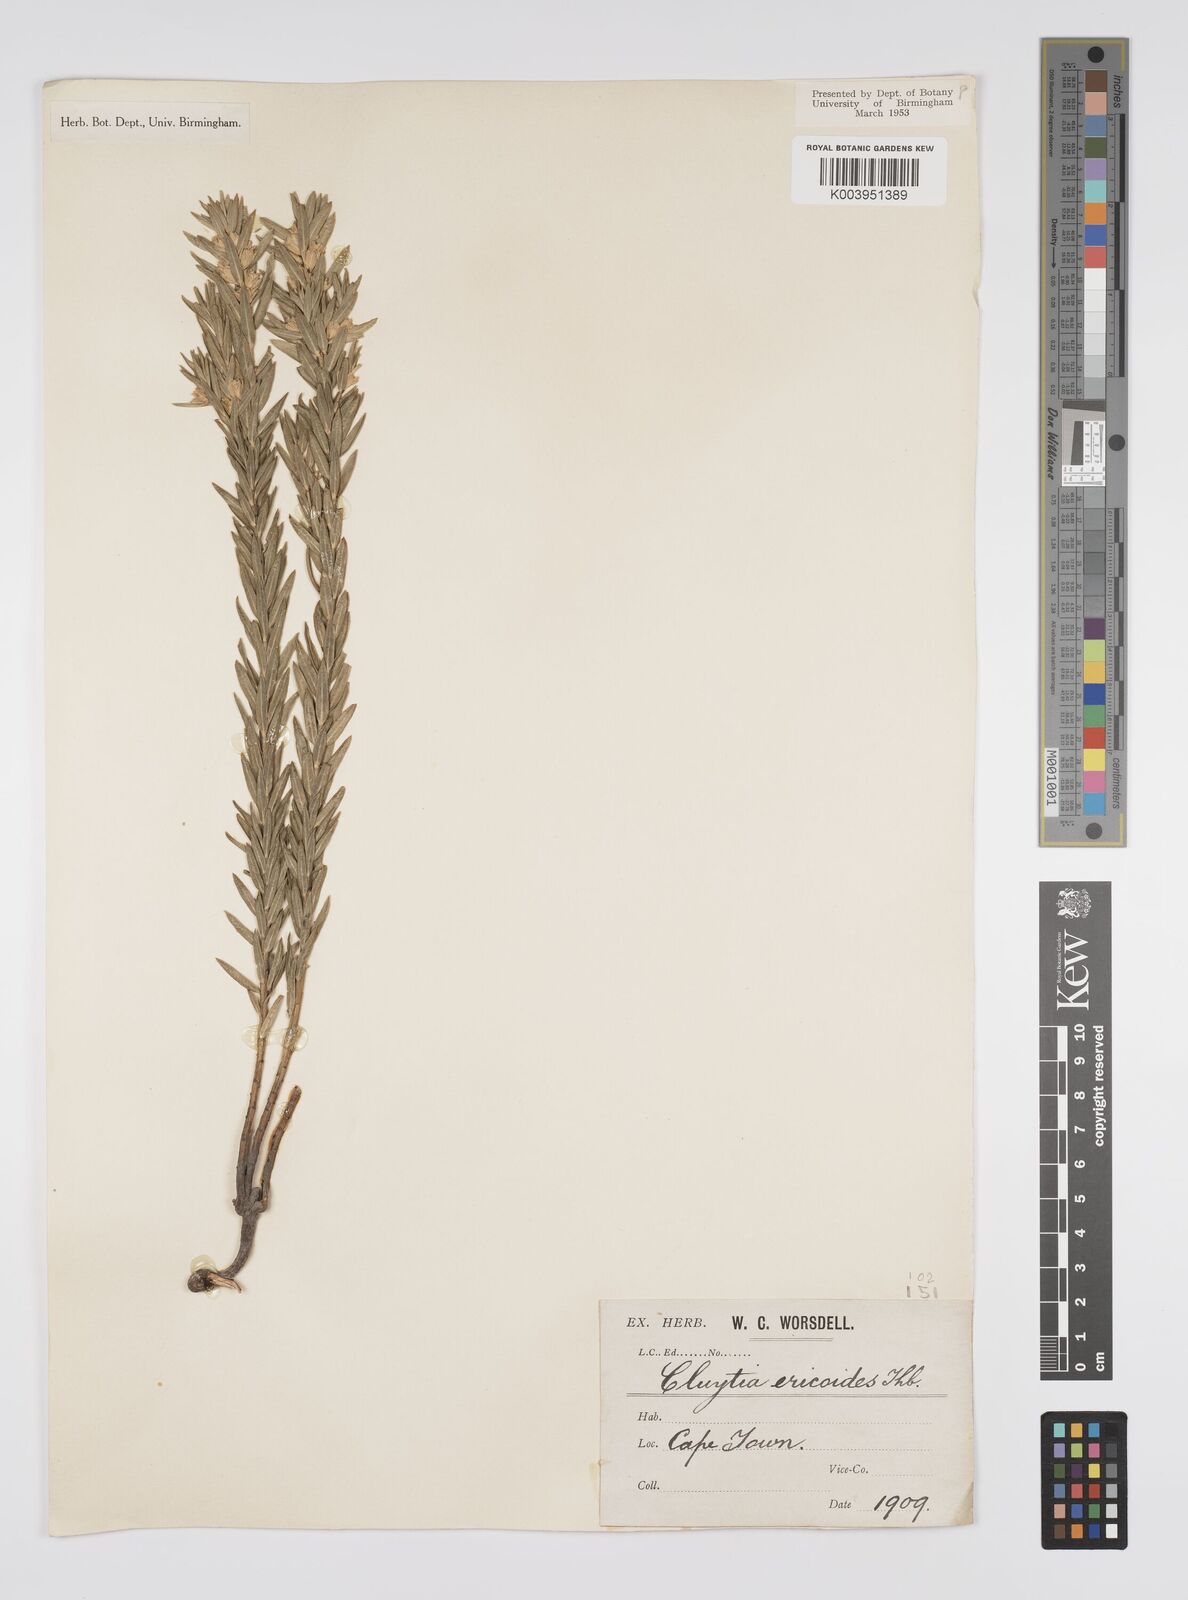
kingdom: Plantae
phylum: Tracheophyta
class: Magnoliopsida
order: Malpighiales
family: Peraceae
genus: Clutia
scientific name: Clutia
